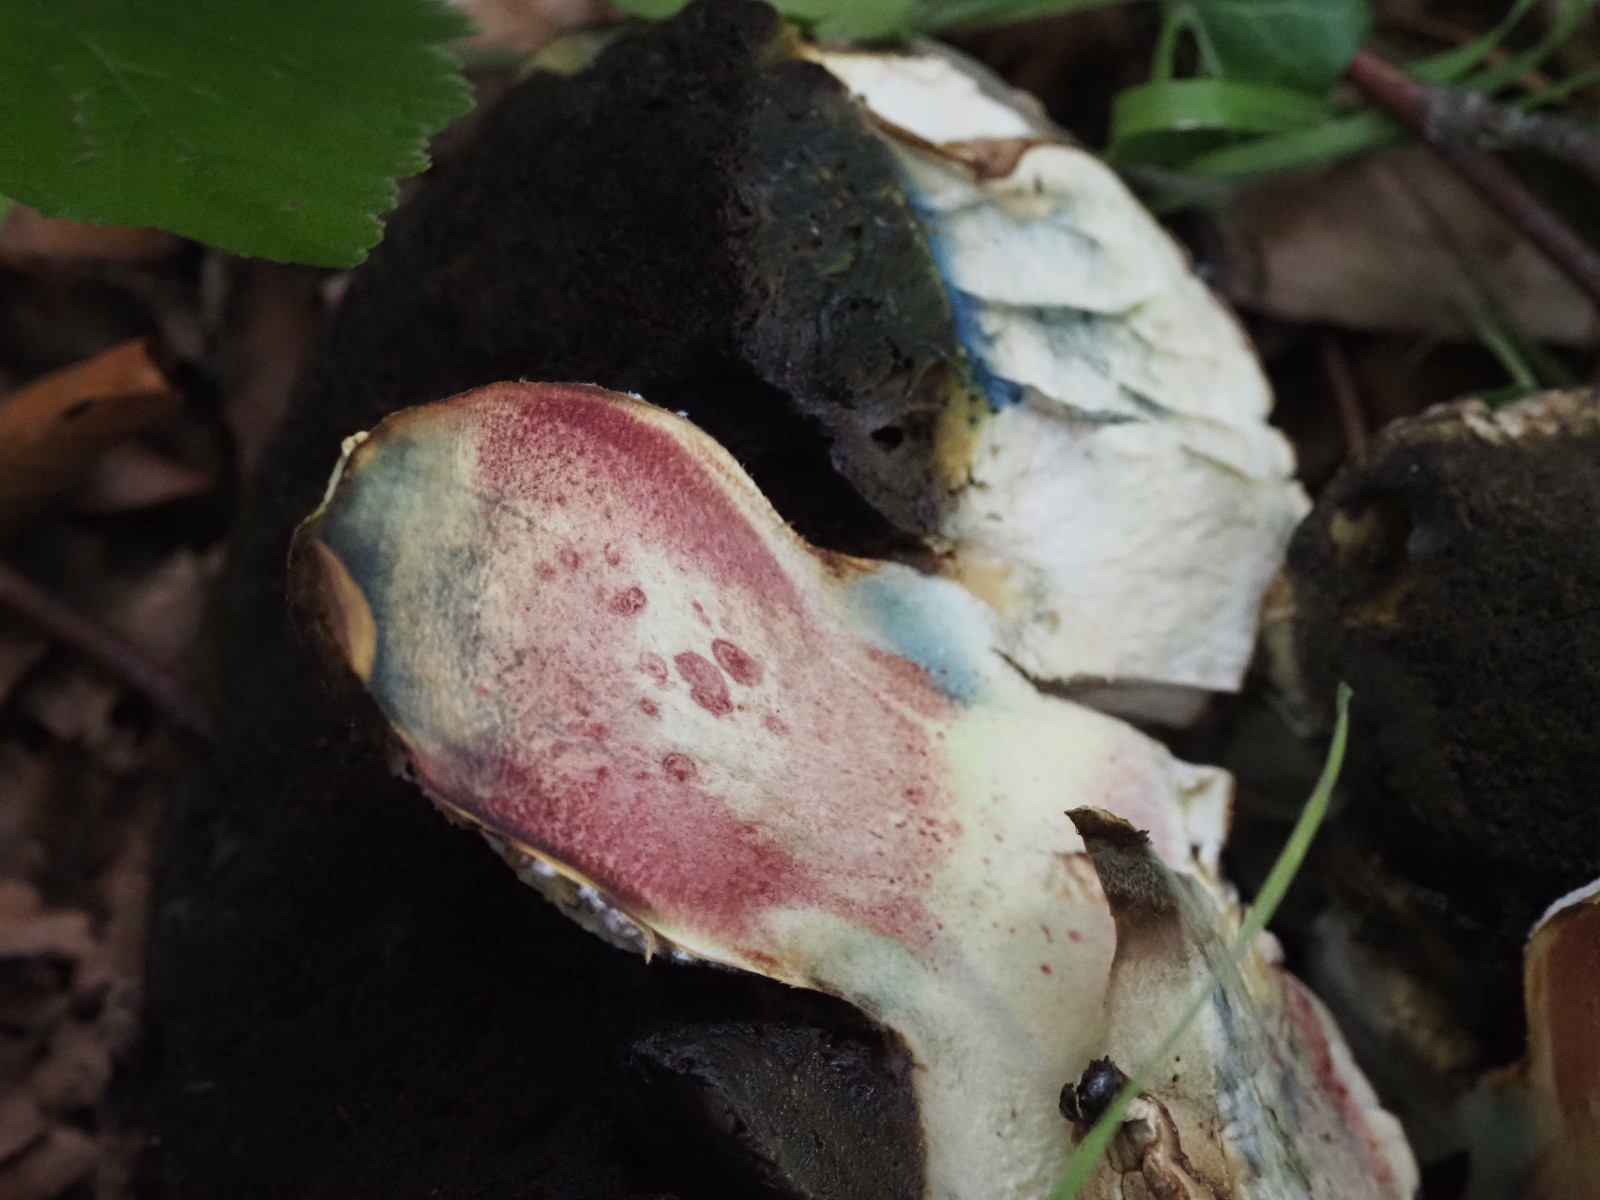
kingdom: Fungi
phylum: Basidiomycota
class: Agaricomycetes
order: Boletales
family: Boletaceae
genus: Caloboletus
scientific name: Caloboletus radicans
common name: rod-rørhat
